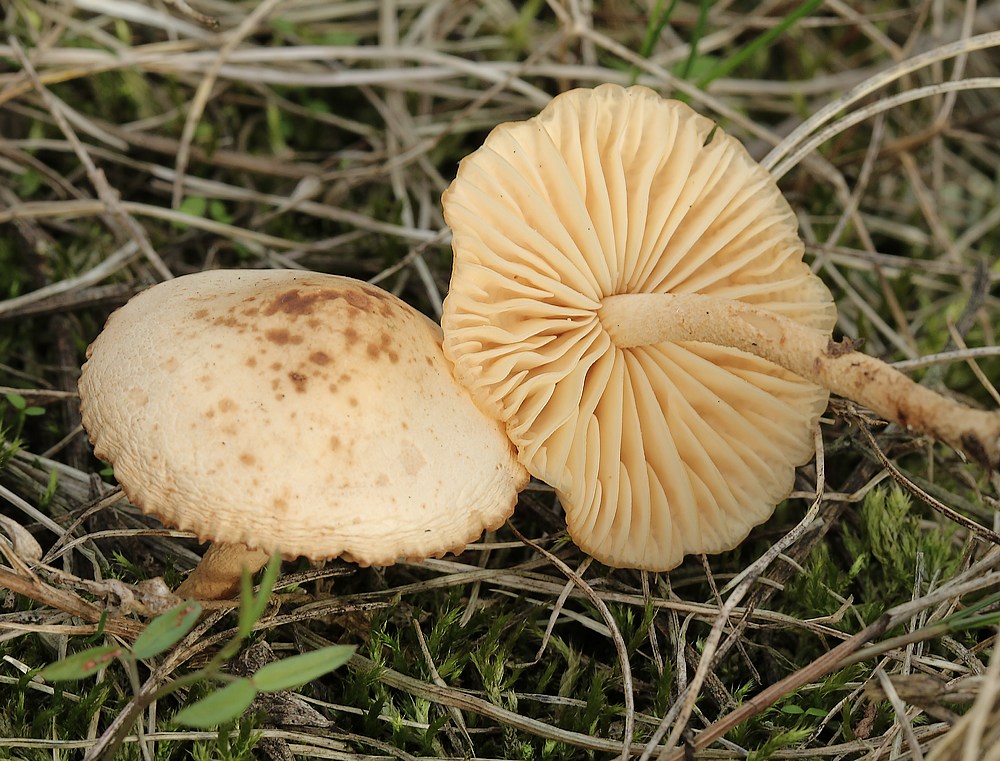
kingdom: Fungi
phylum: Basidiomycota
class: Agaricomycetes
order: Agaricales
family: Marasmiaceae
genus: Marasmius
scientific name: Marasmius oreades
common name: elledans-bruskhat
